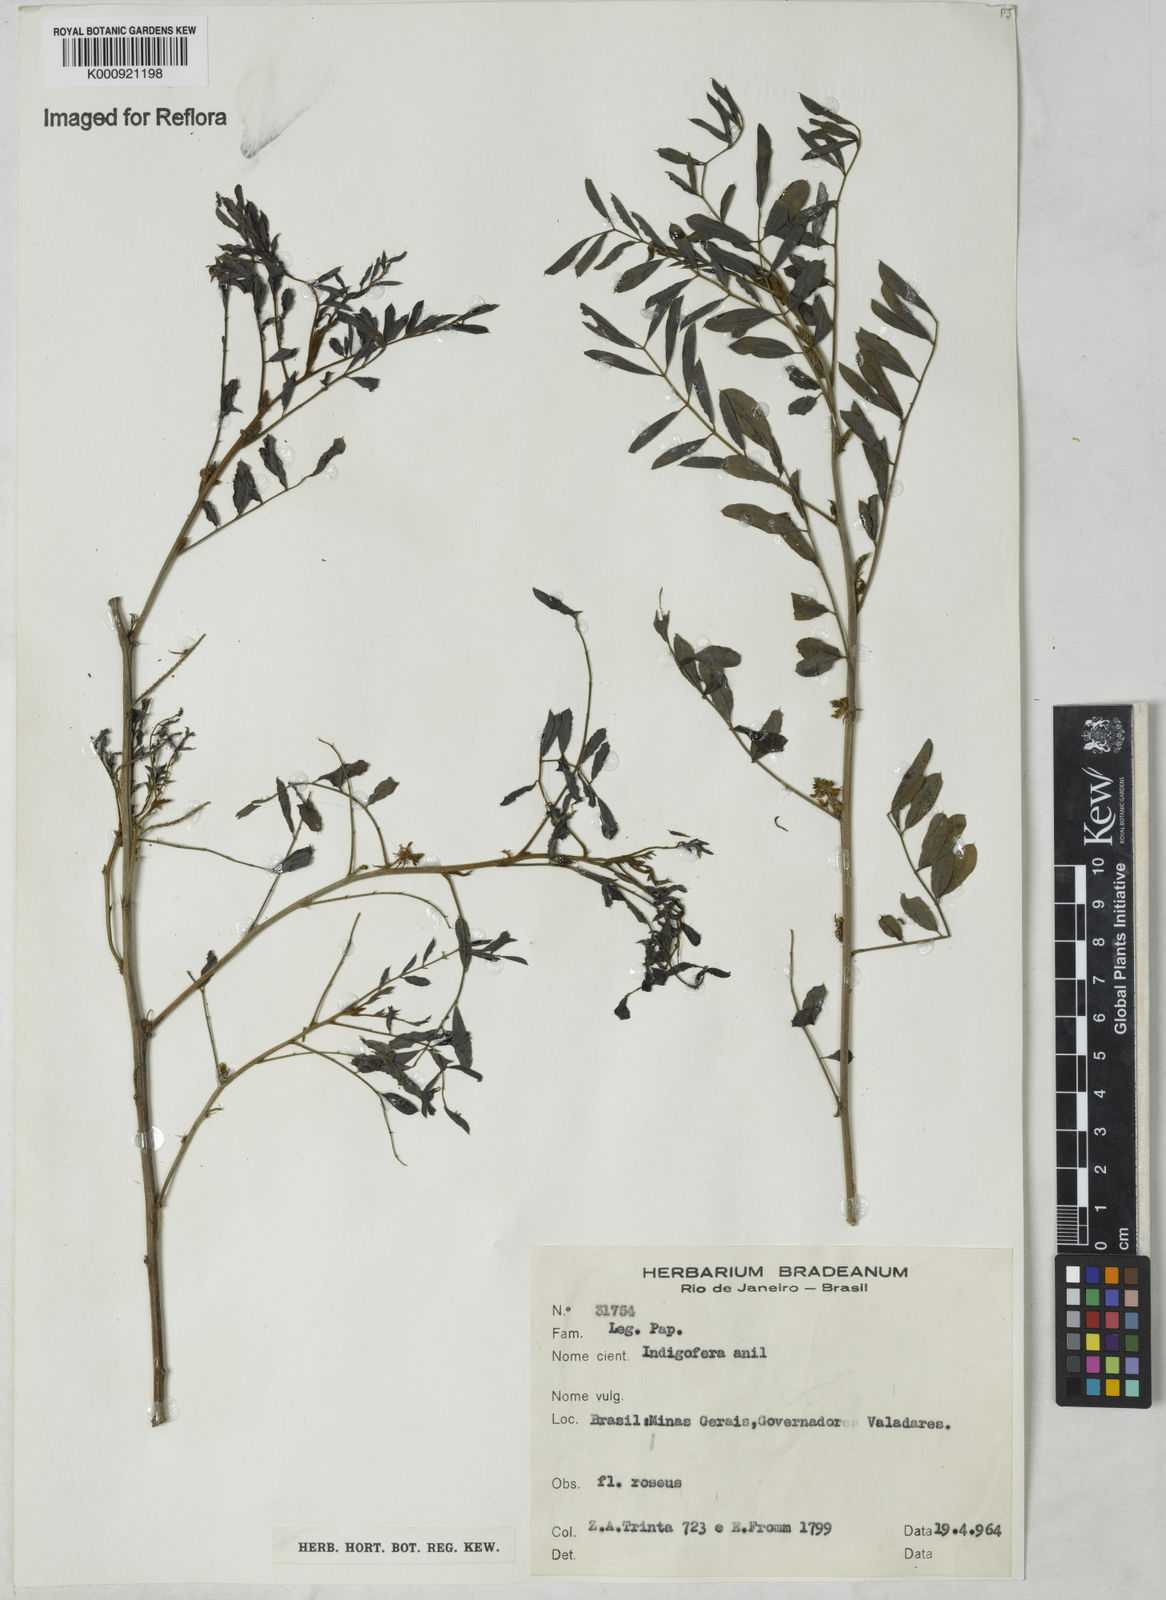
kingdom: Plantae
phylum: Tracheophyta
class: Magnoliopsida
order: Fabales
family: Fabaceae
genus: Indigofera
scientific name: Indigofera suffruticosa
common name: Anil de pasto
